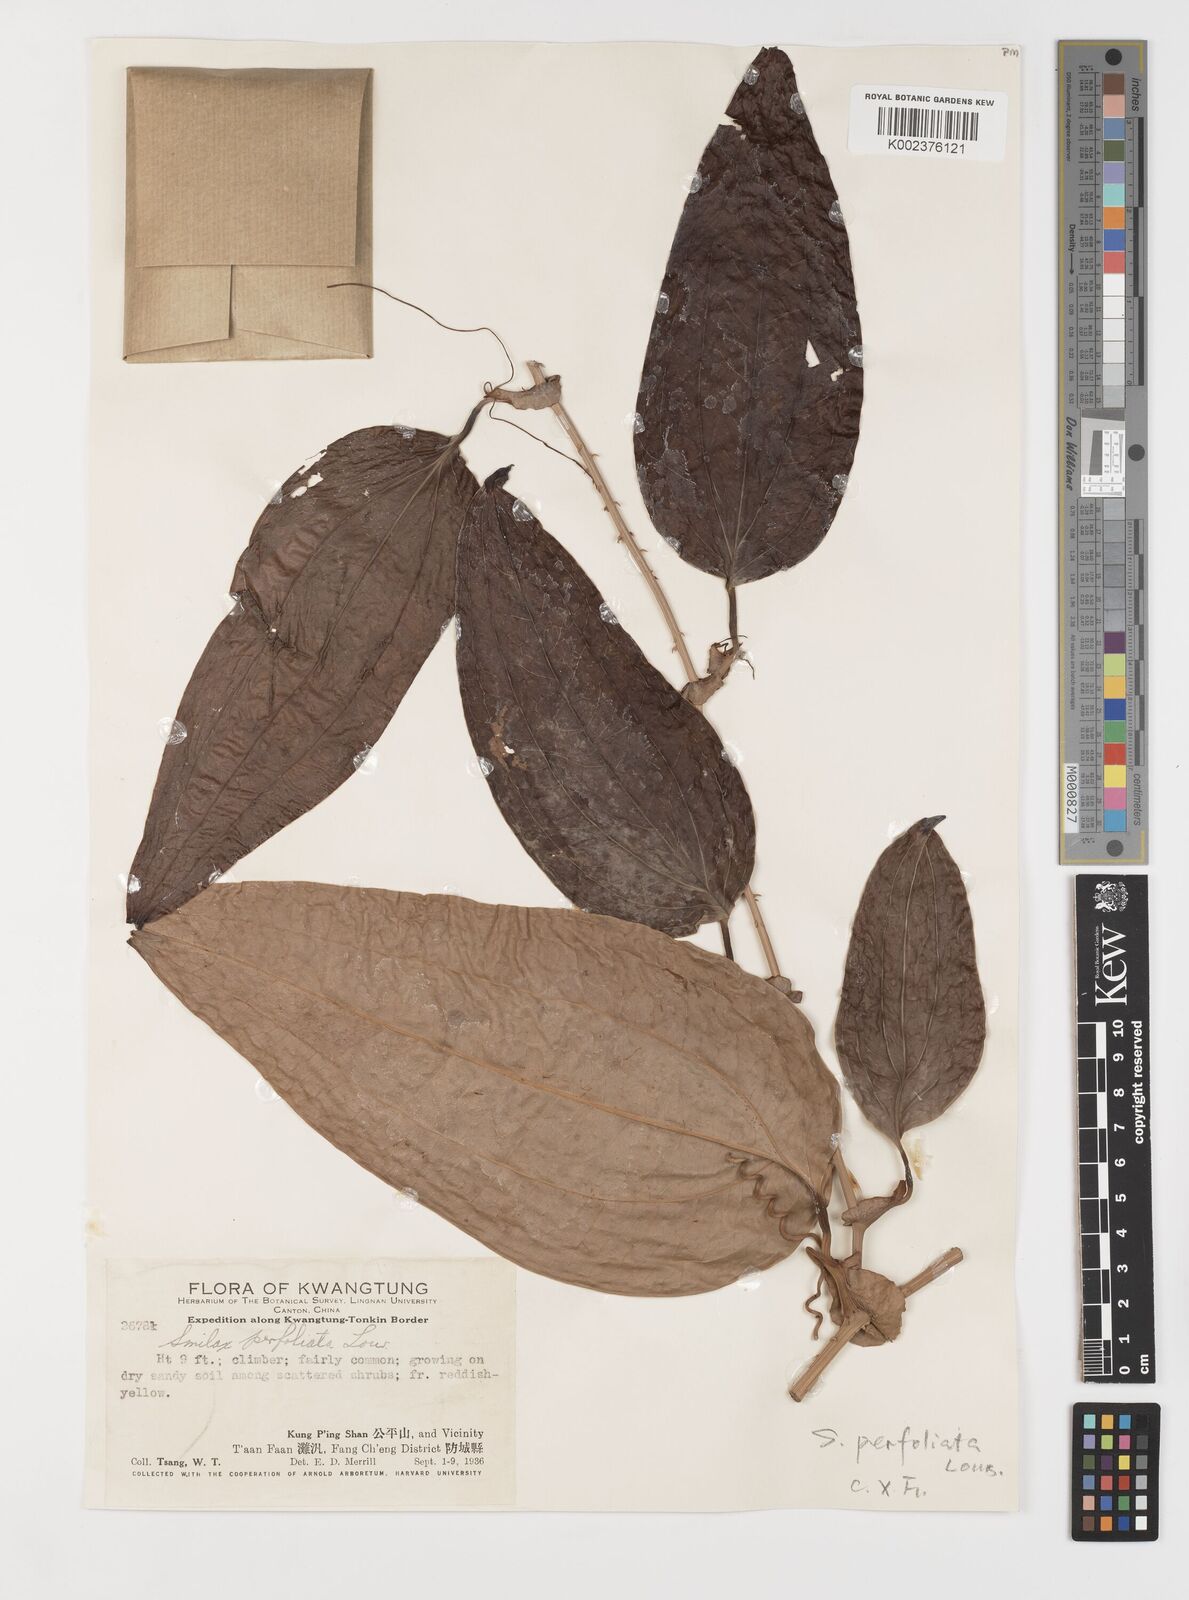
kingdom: Plantae
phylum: Tracheophyta
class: Liliopsida
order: Liliales
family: Smilacaceae
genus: Smilax
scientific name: Smilax ovalifolia
